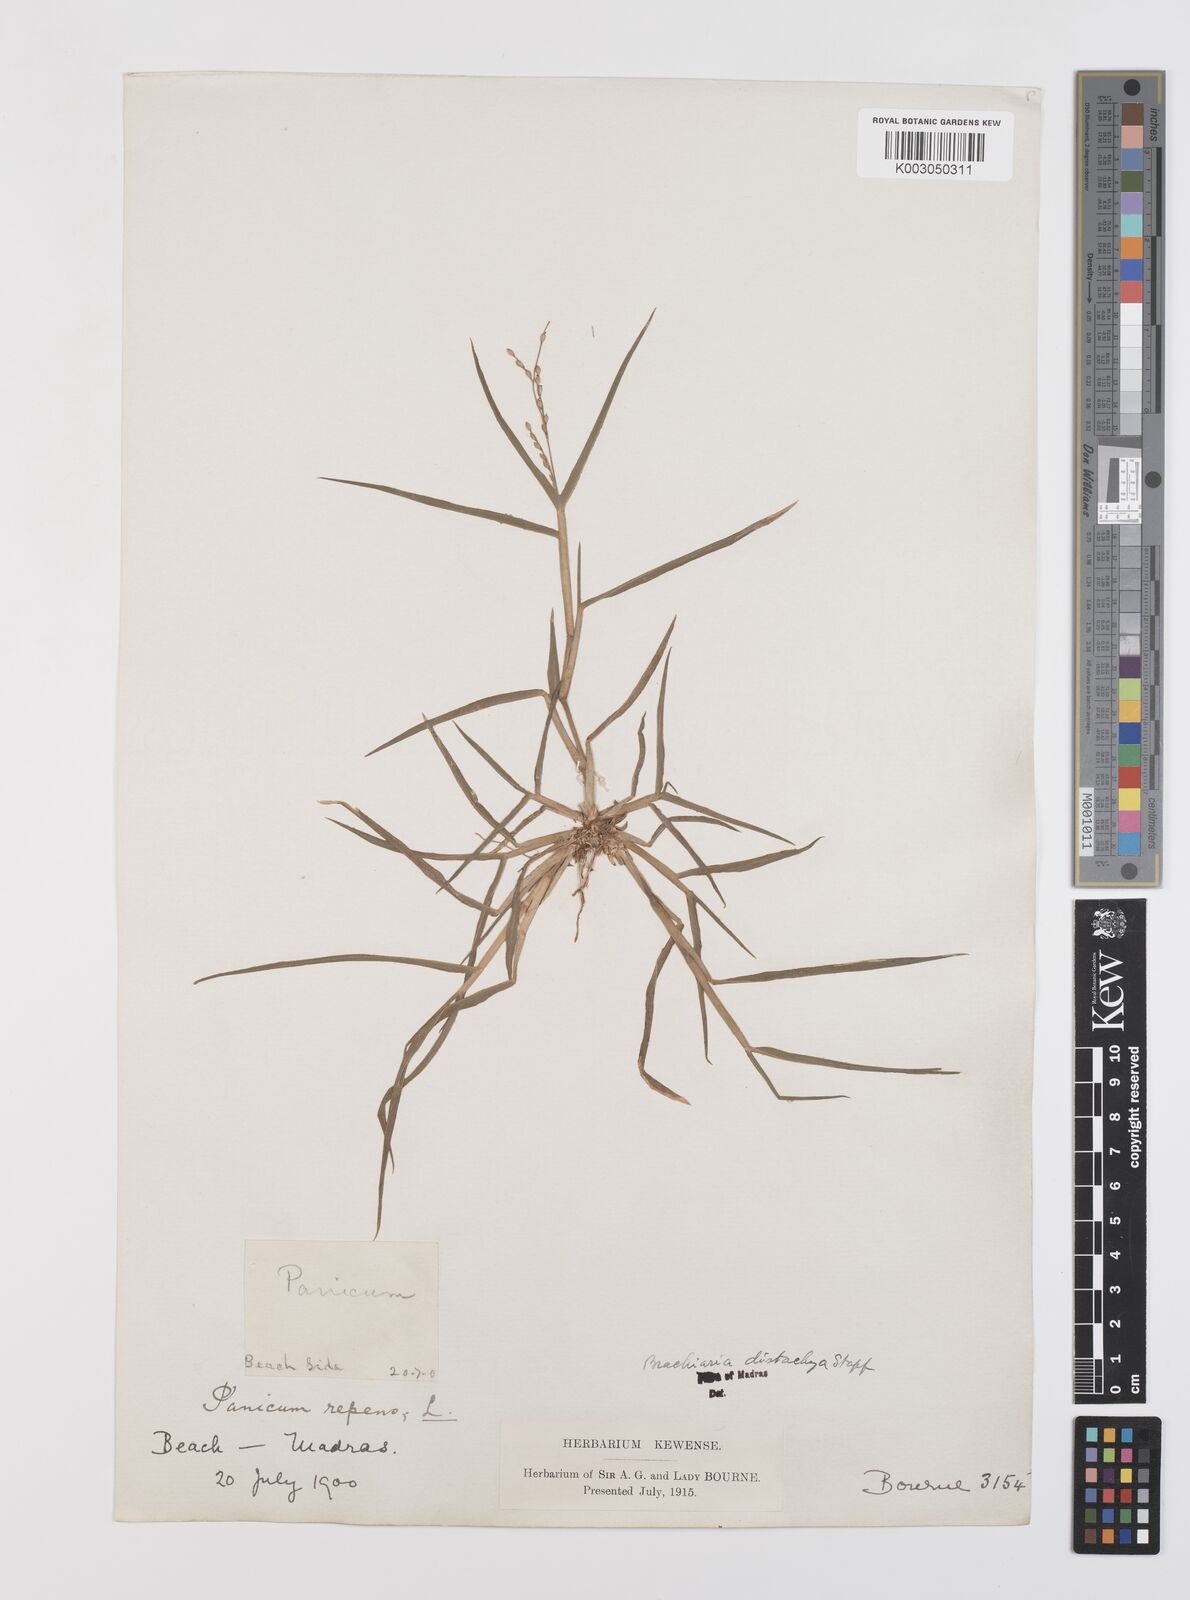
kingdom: Plantae
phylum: Tracheophyta
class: Liliopsida
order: Poales
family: Poaceae
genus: Urochloa
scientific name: Urochloa ramosa
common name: Browntop millet
